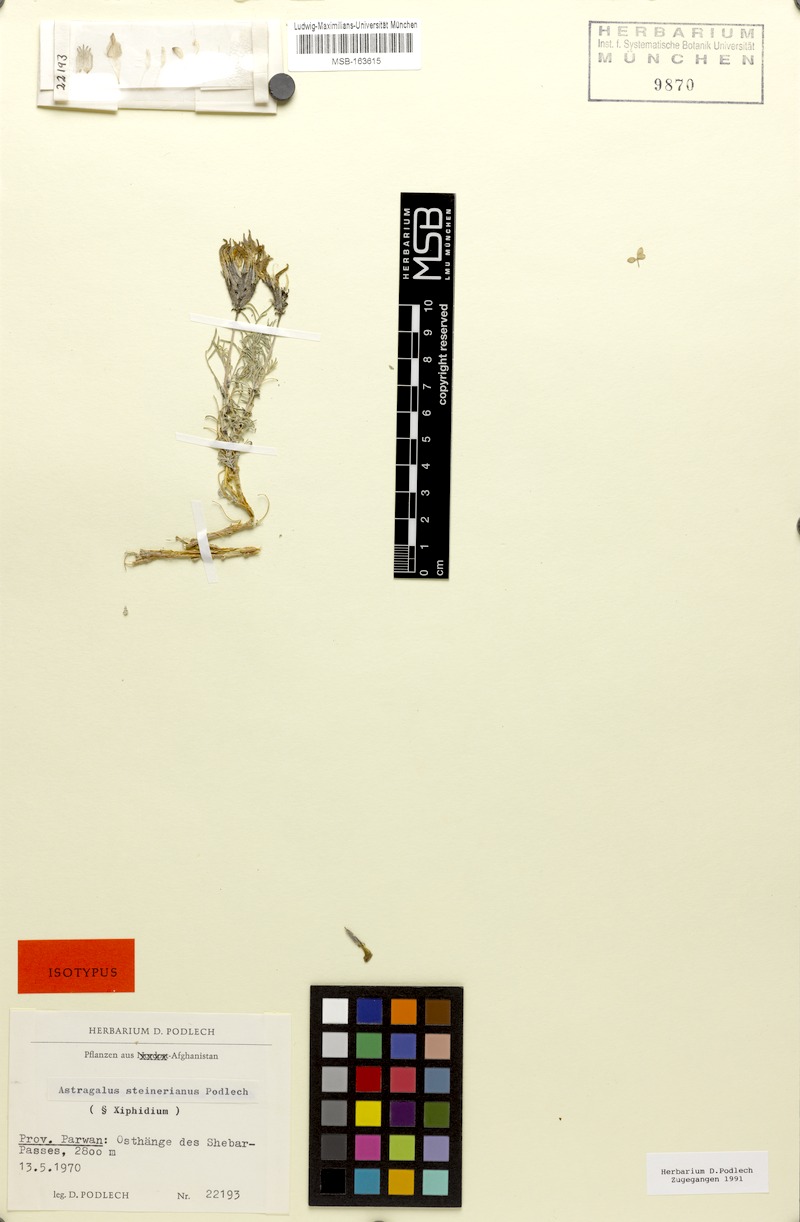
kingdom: Plantae
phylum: Tracheophyta
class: Magnoliopsida
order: Fabales
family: Fabaceae
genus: Astragalus
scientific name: Astragalus steineranus
